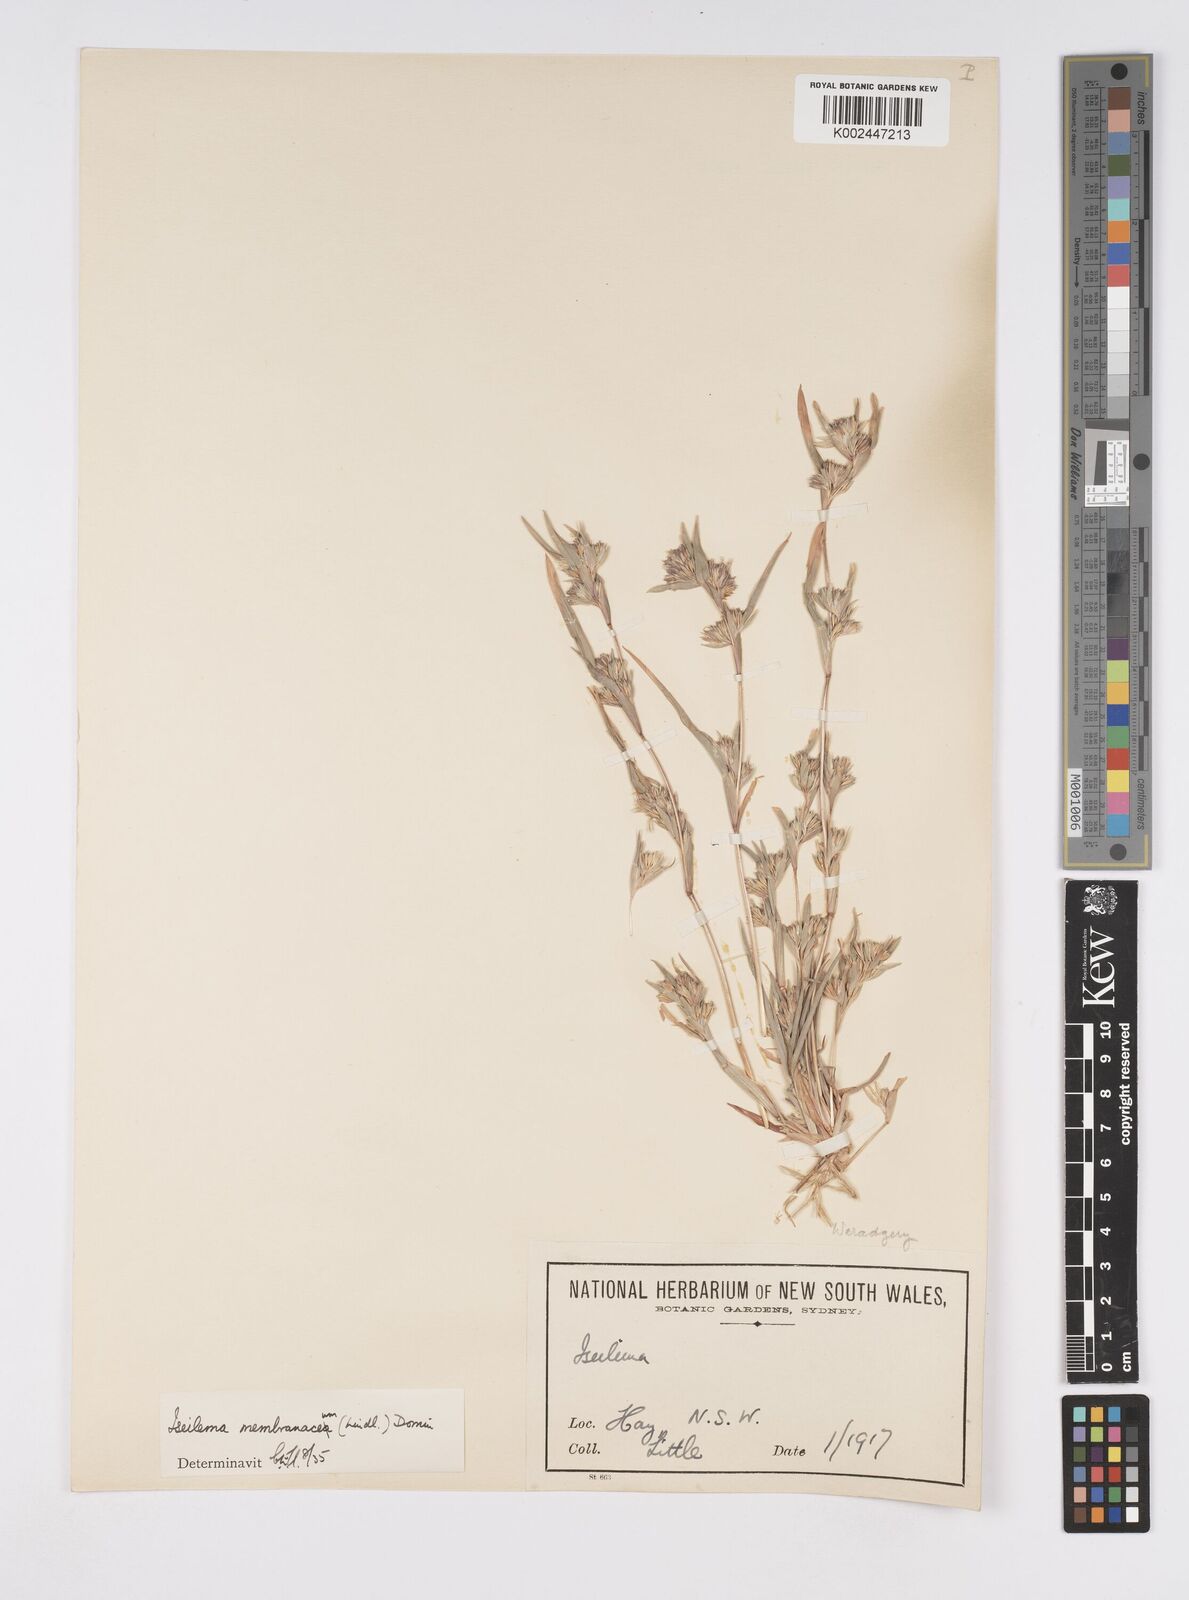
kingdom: Plantae
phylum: Tracheophyta
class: Liliopsida
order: Poales
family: Poaceae
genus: Iseilema
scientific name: Iseilema membranaceum
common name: Small flinders grass
